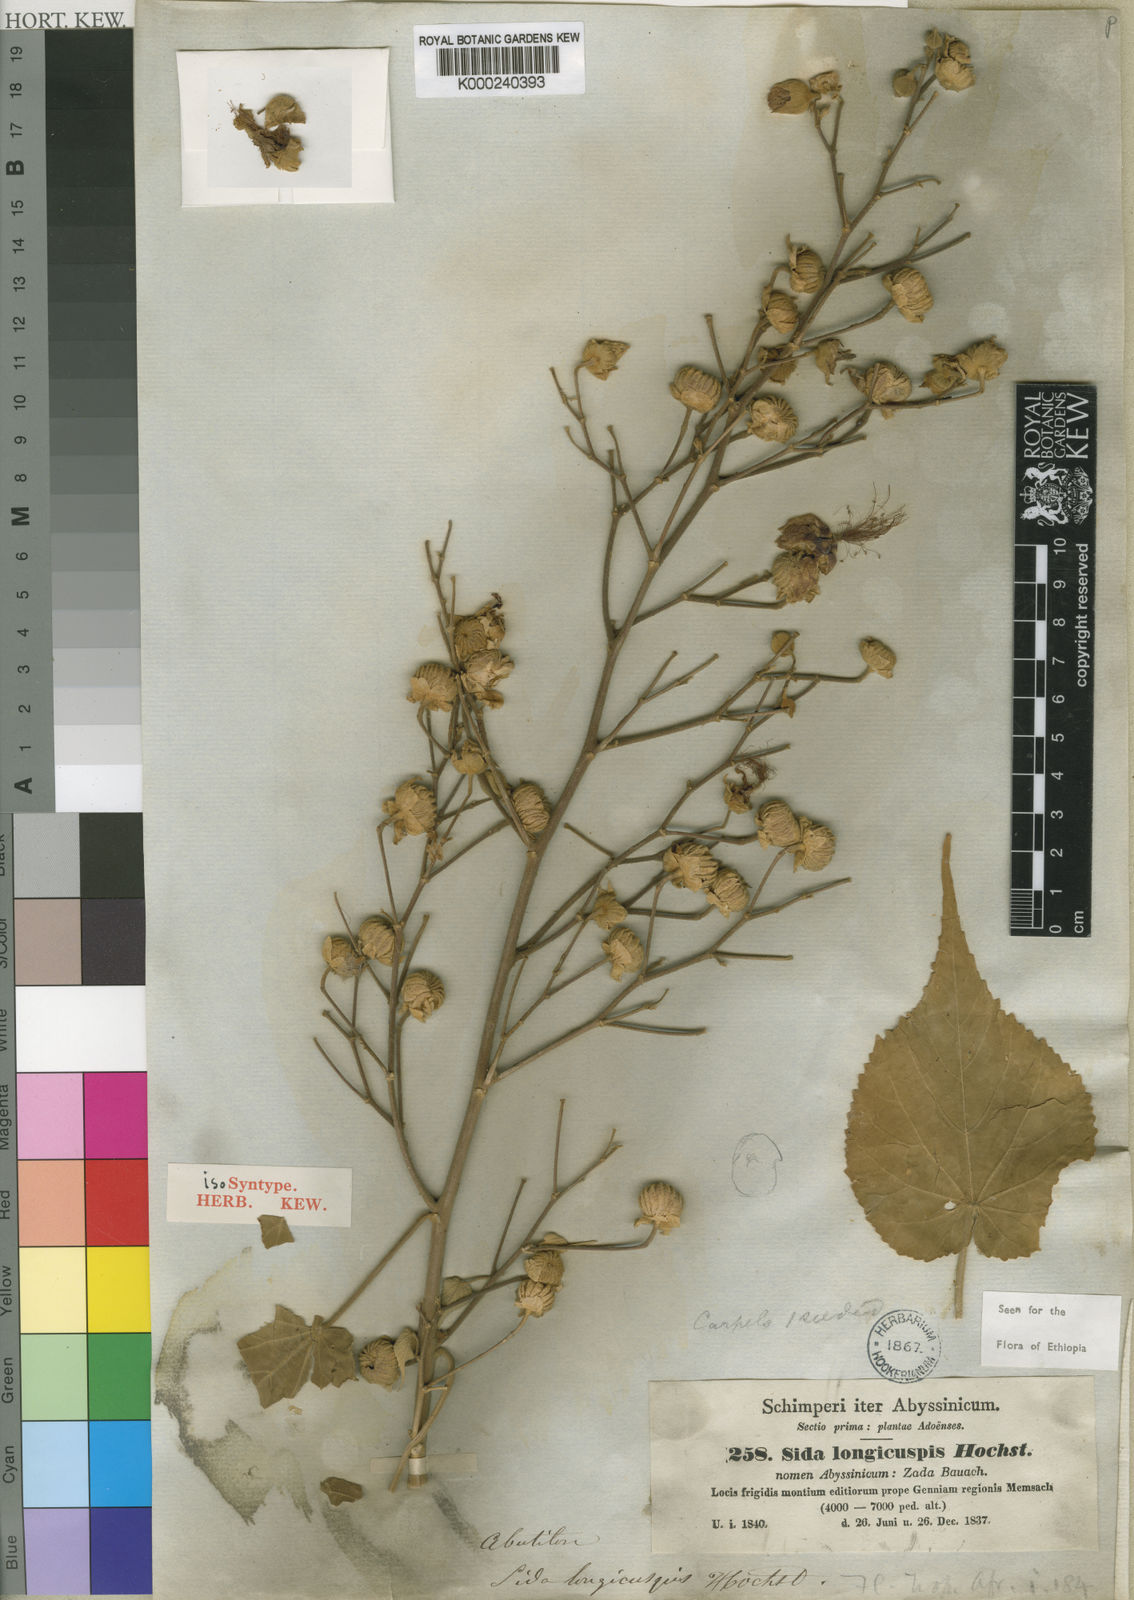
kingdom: Plantae
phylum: Tracheophyta
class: Magnoliopsida
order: Malvales
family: Malvaceae
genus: Abutilon
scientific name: Abutilon longicuspe
